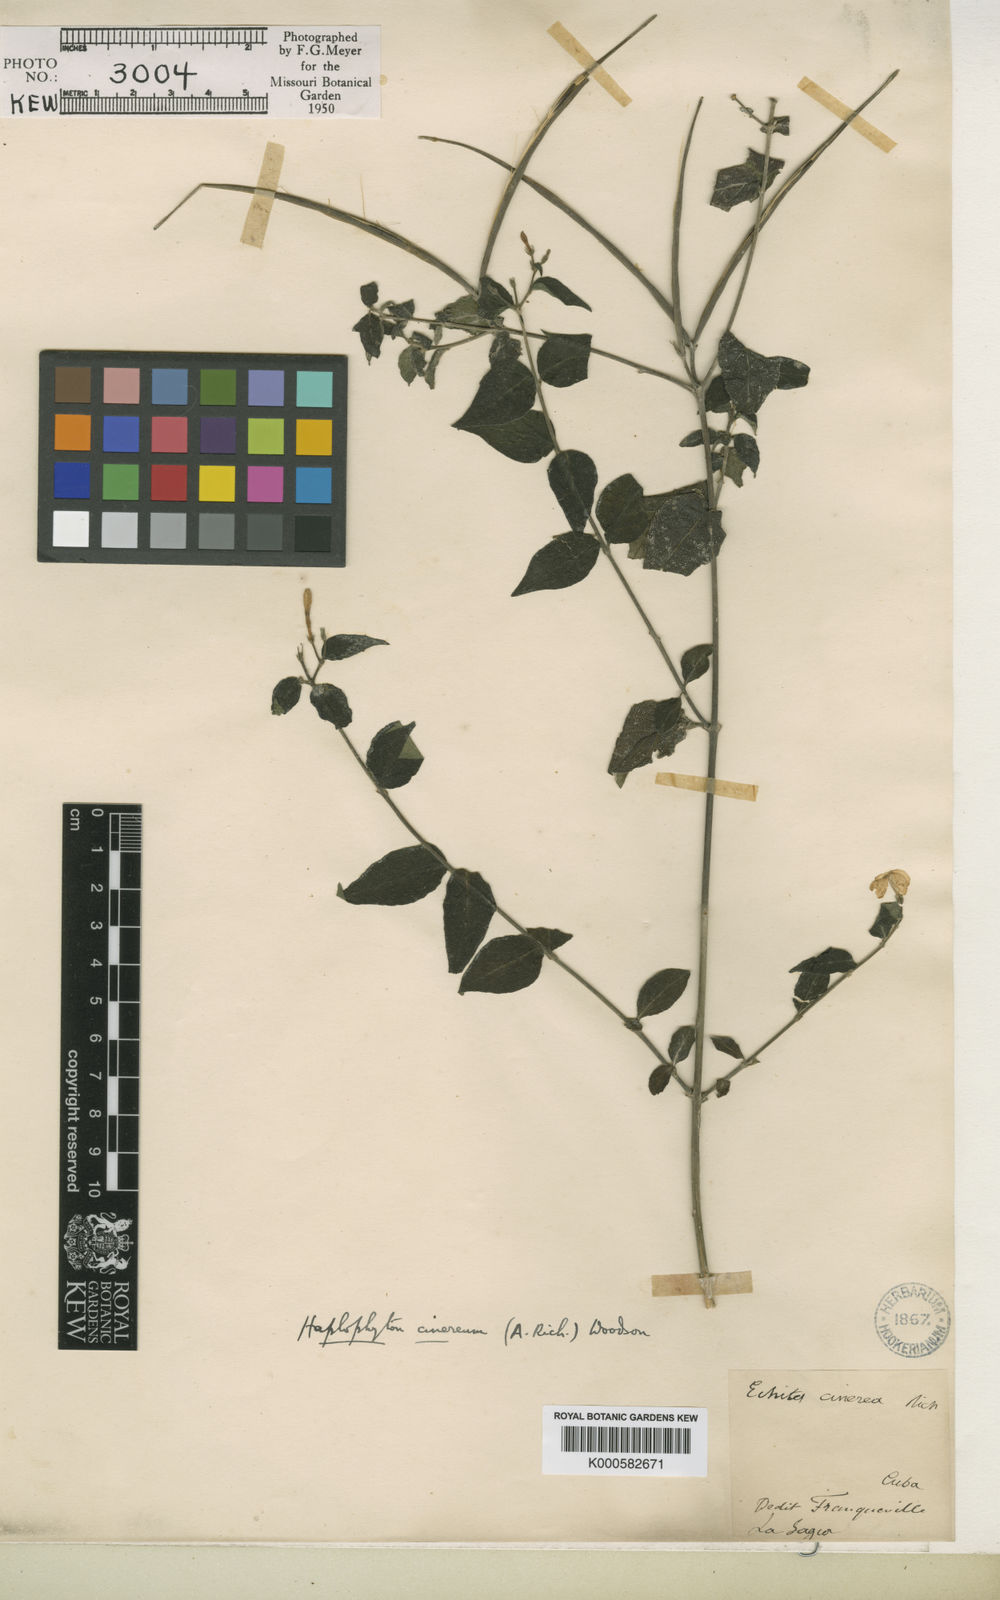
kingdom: Plantae
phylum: Tracheophyta
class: Magnoliopsida
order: Gentianales
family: Apocynaceae
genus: Haplophyton
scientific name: Haplophyton cimicidum
